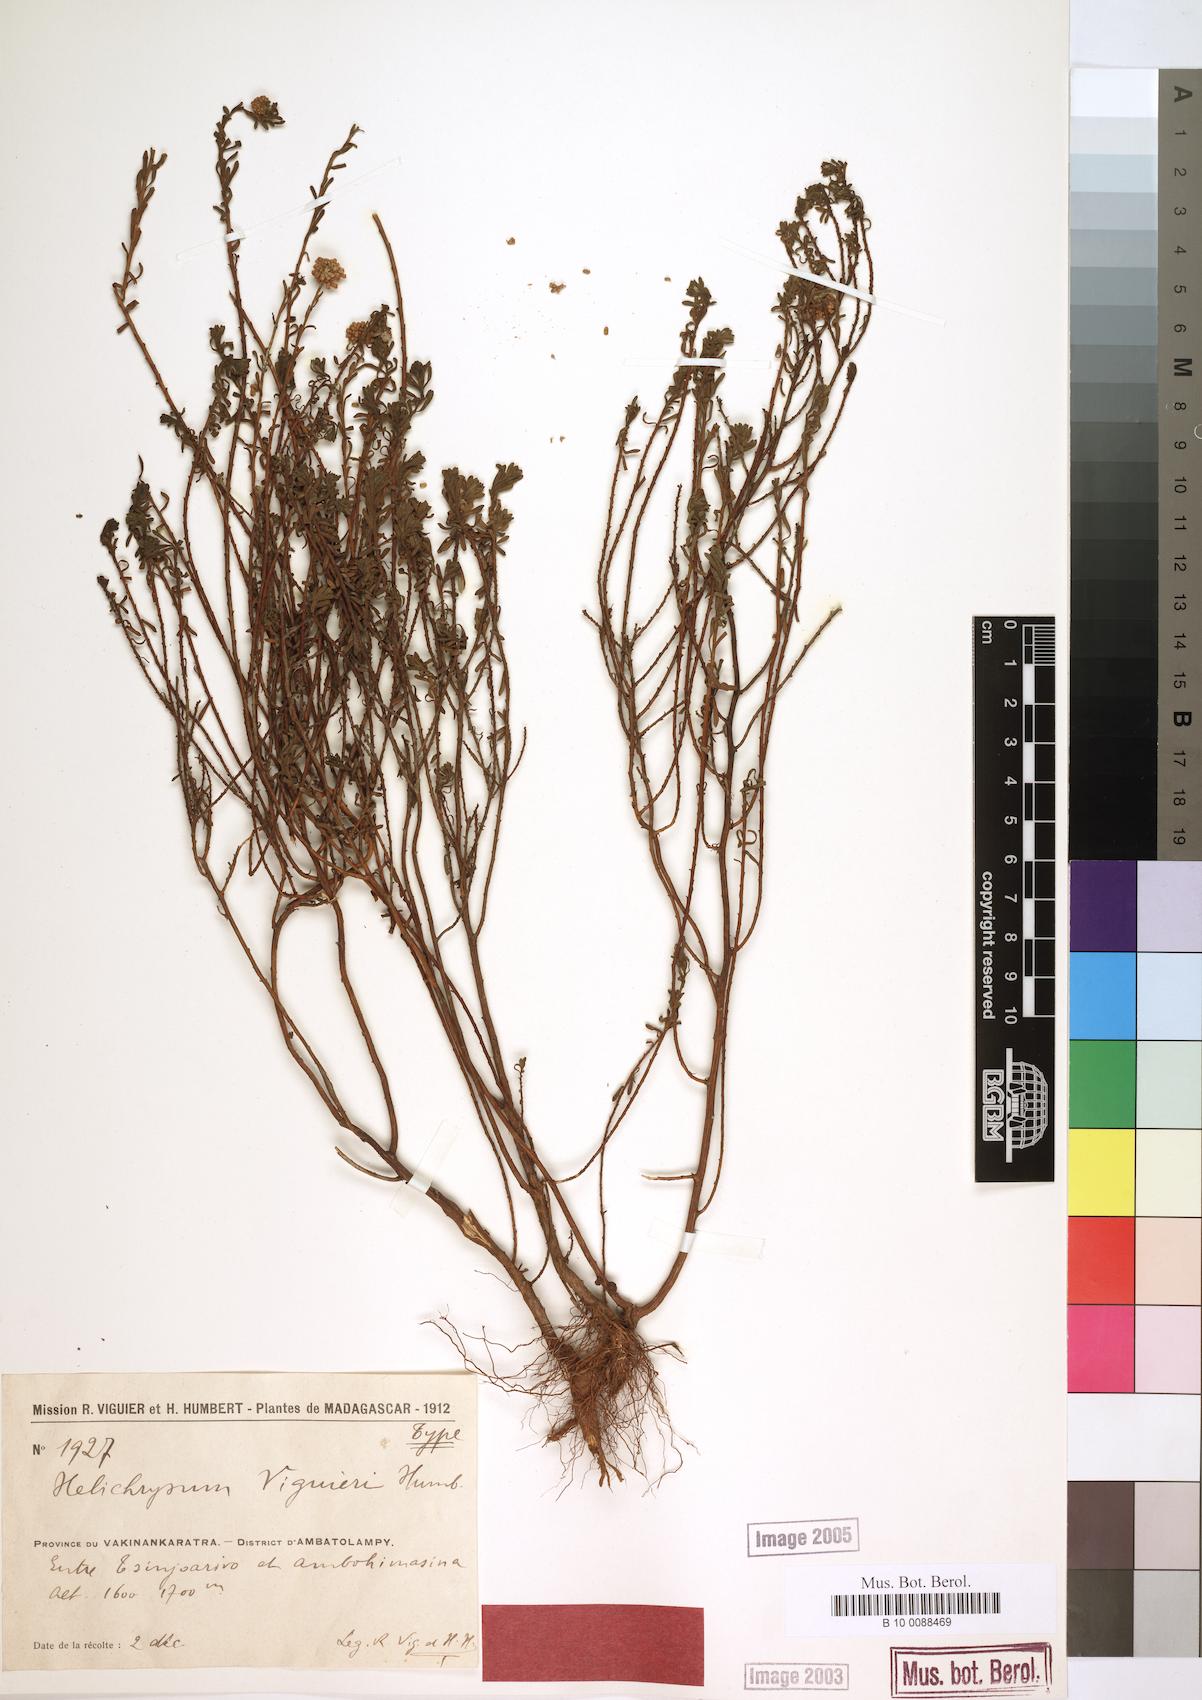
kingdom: Plantae
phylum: Tracheophyta
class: Magnoliopsida
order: Asterales
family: Asteraceae
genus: Helichrysum
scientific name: Helichrysum viguieri
